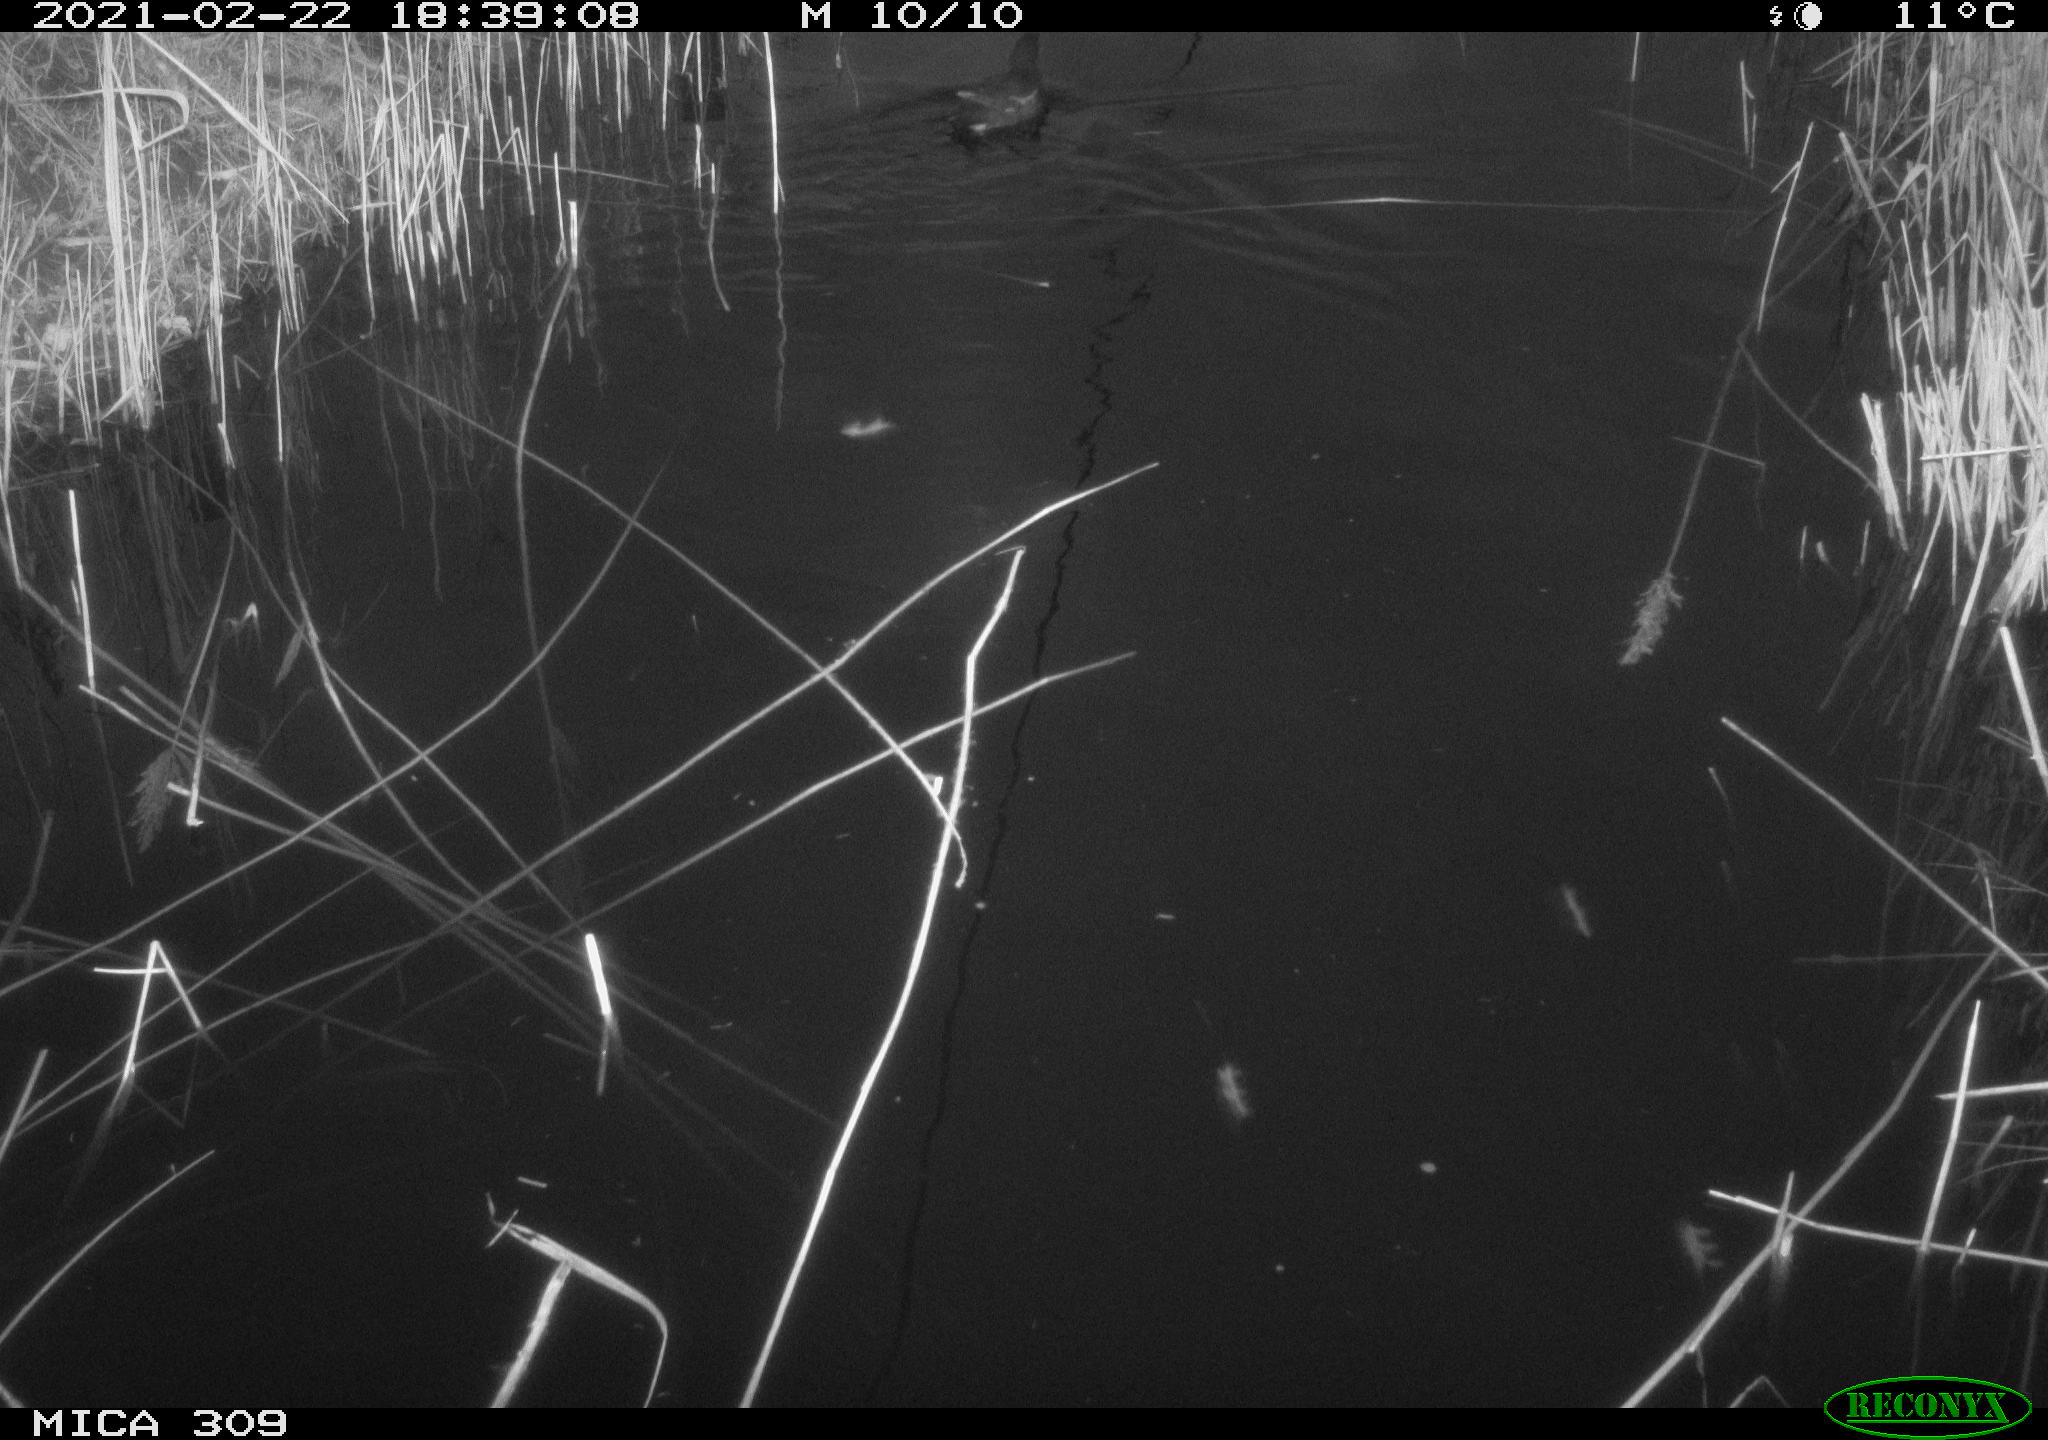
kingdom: Animalia
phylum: Chordata
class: Aves
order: Gruiformes
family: Rallidae
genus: Gallinula
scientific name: Gallinula chloropus
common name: Common moorhen
